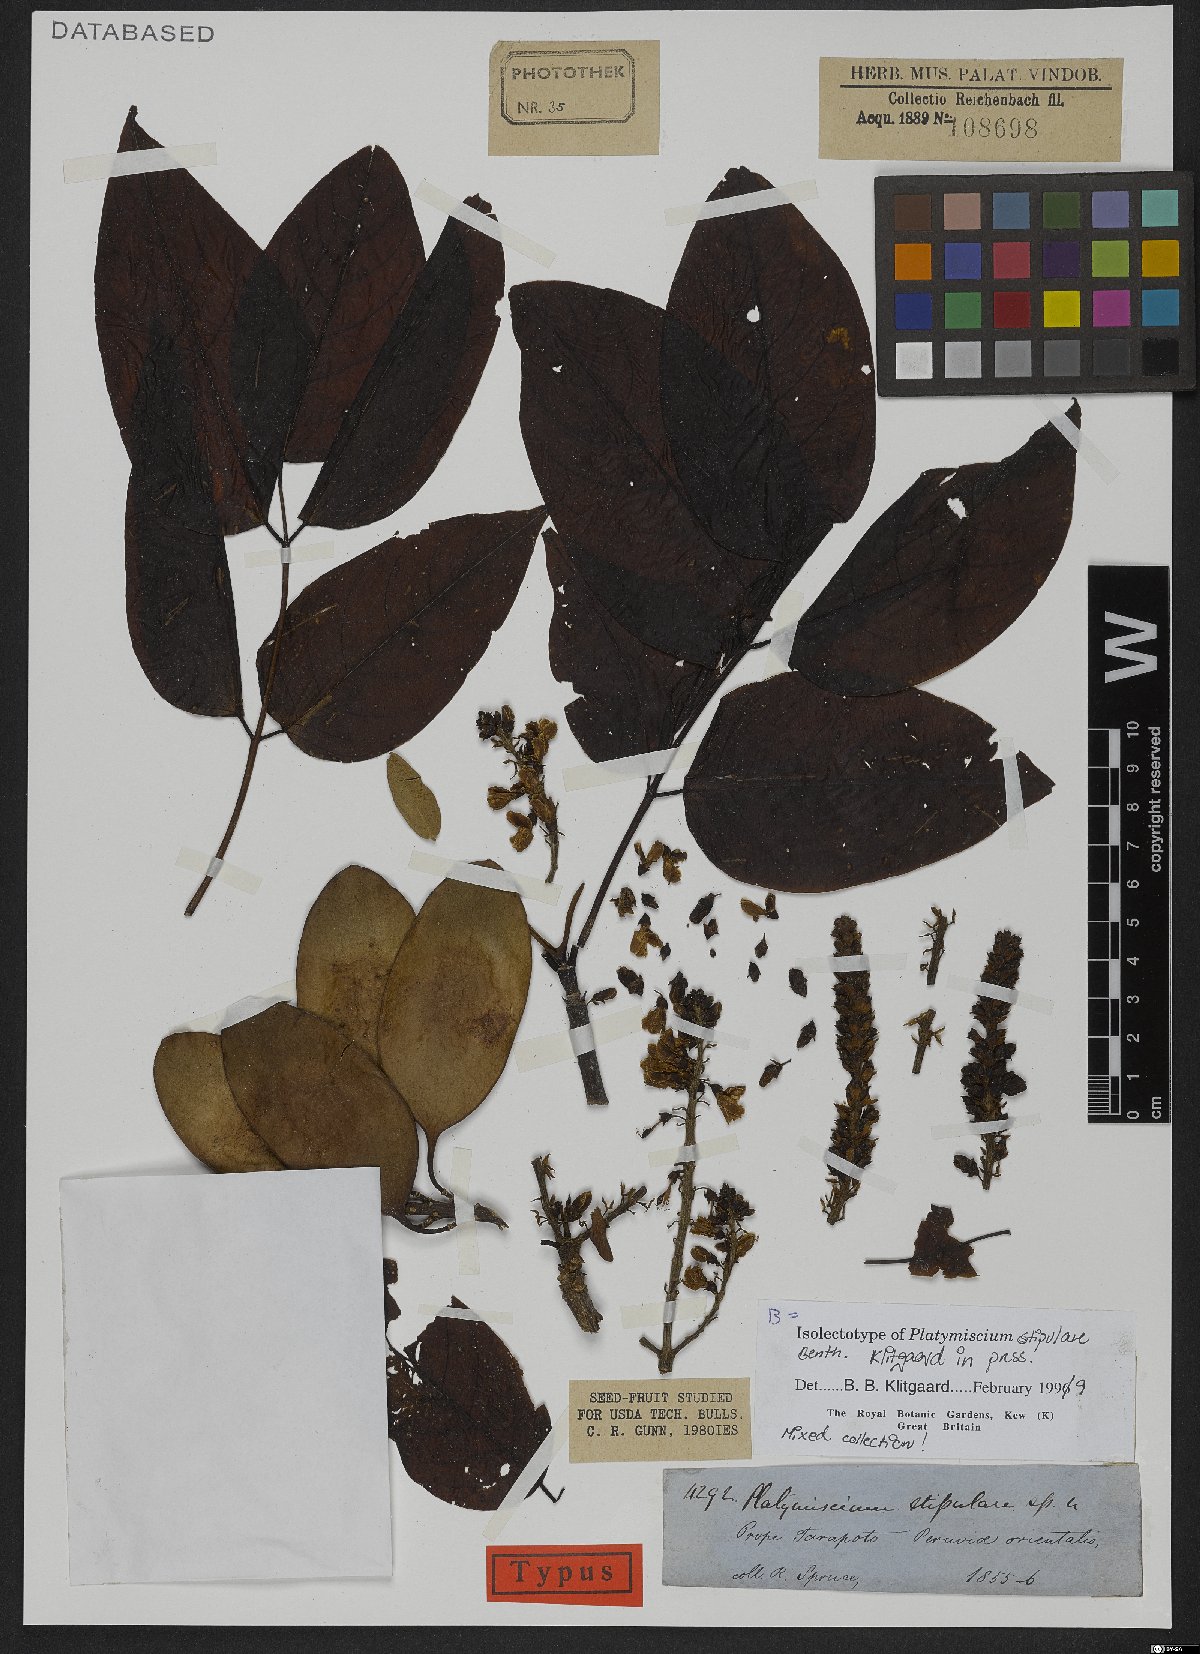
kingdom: Plantae
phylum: Tracheophyta
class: Magnoliopsida
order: Fabales
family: Fabaceae
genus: Platymiscium
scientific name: Platymiscium stipulare
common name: Legume
